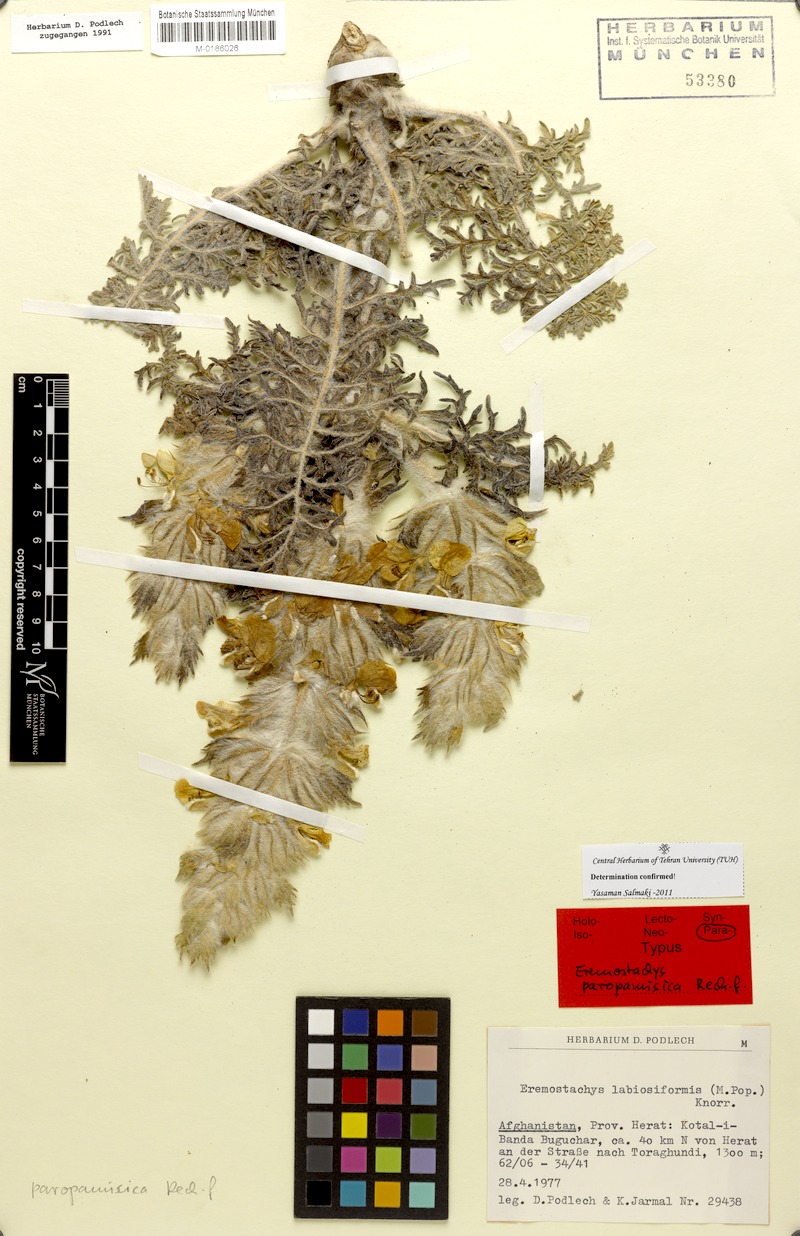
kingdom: Plantae
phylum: Tracheophyta
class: Magnoliopsida
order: Lamiales
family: Lamiaceae
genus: Phlomoides
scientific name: Phlomoides paropamisica
